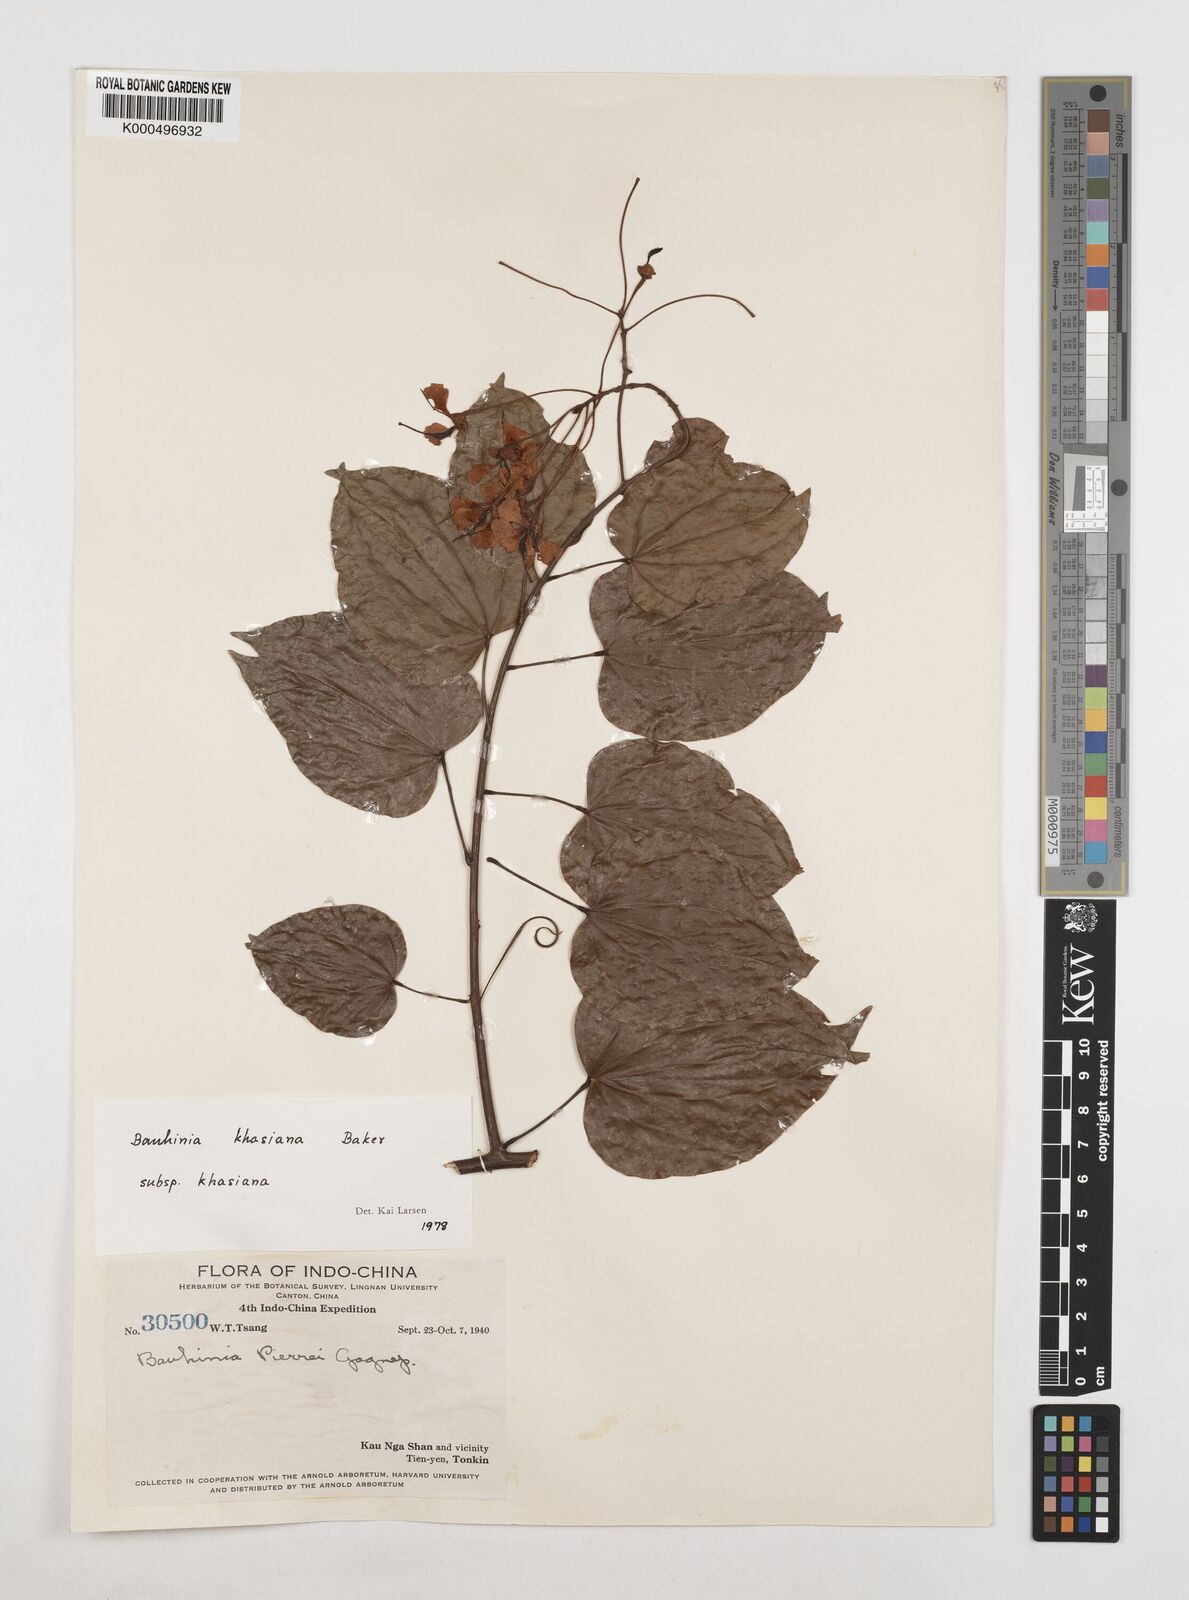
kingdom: Plantae
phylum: Tracheophyta
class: Magnoliopsida
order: Fabales
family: Fabaceae
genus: Phanera
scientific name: Phanera khasiana
